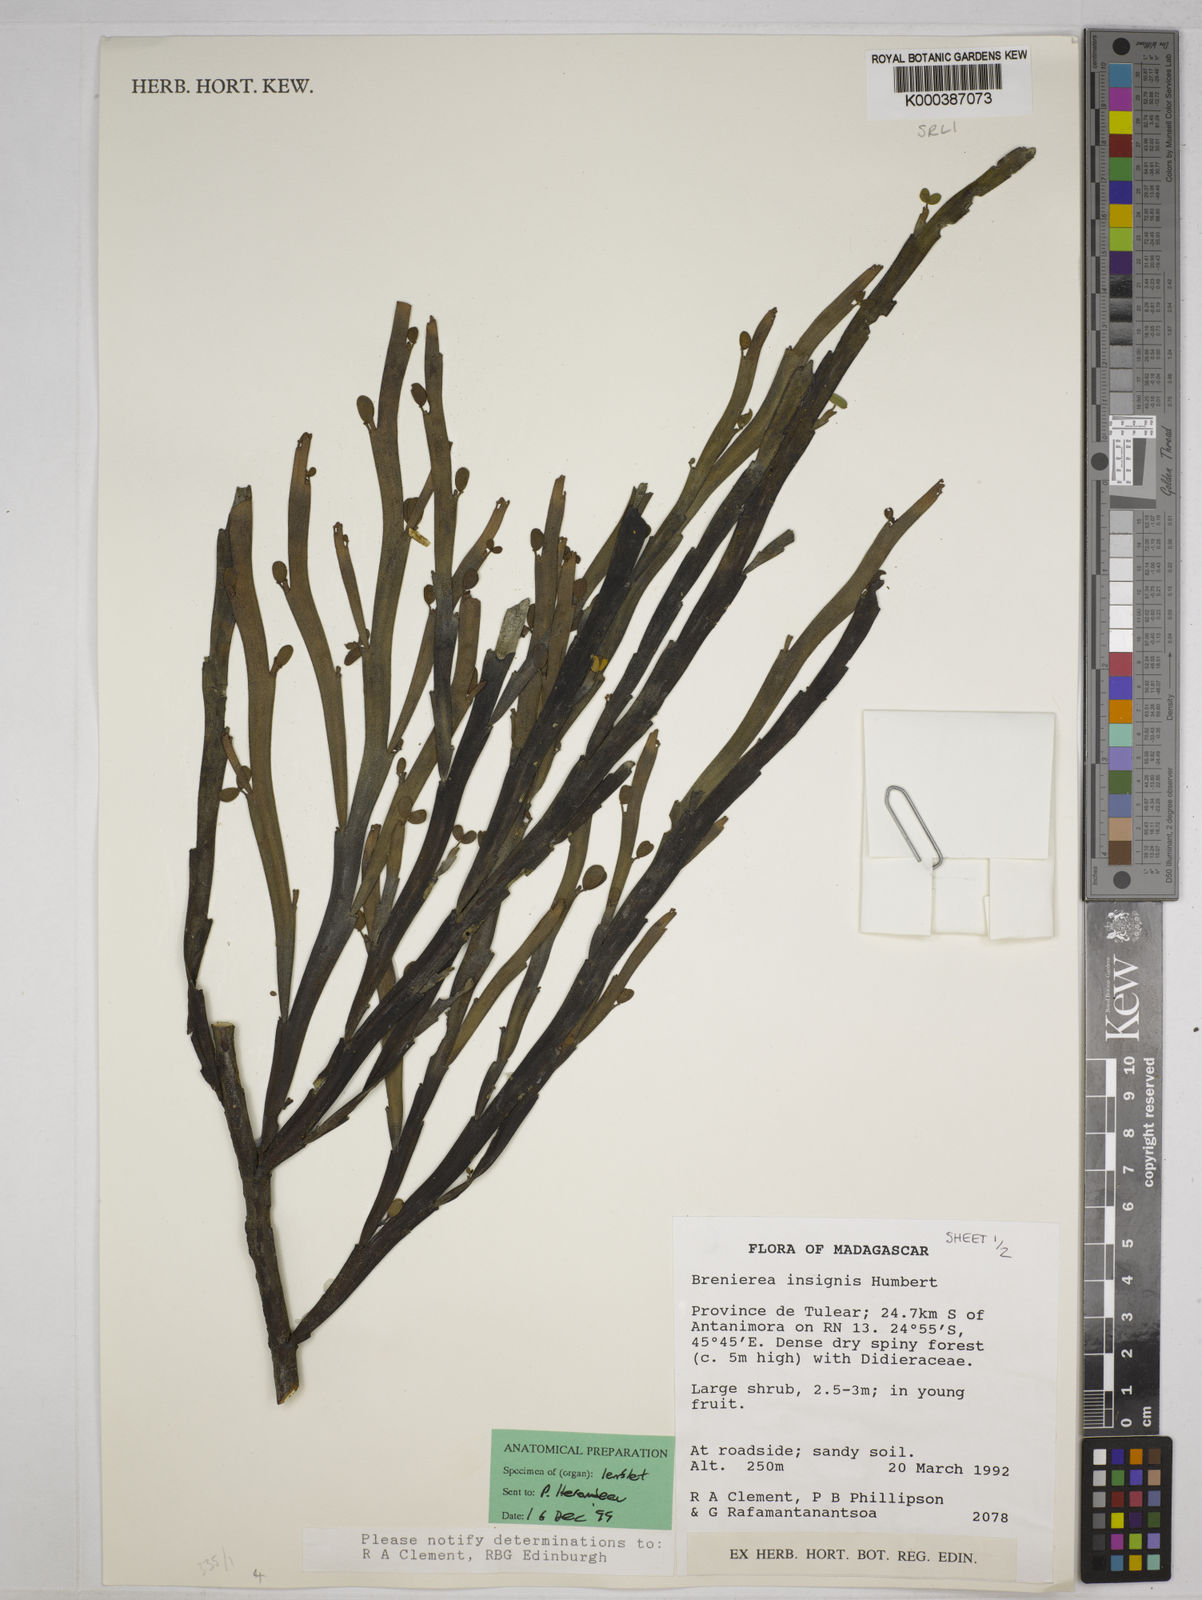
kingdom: Plantae
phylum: Tracheophyta
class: Magnoliopsida
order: Fabales
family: Fabaceae
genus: Brenierea
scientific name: Brenierea insignis
